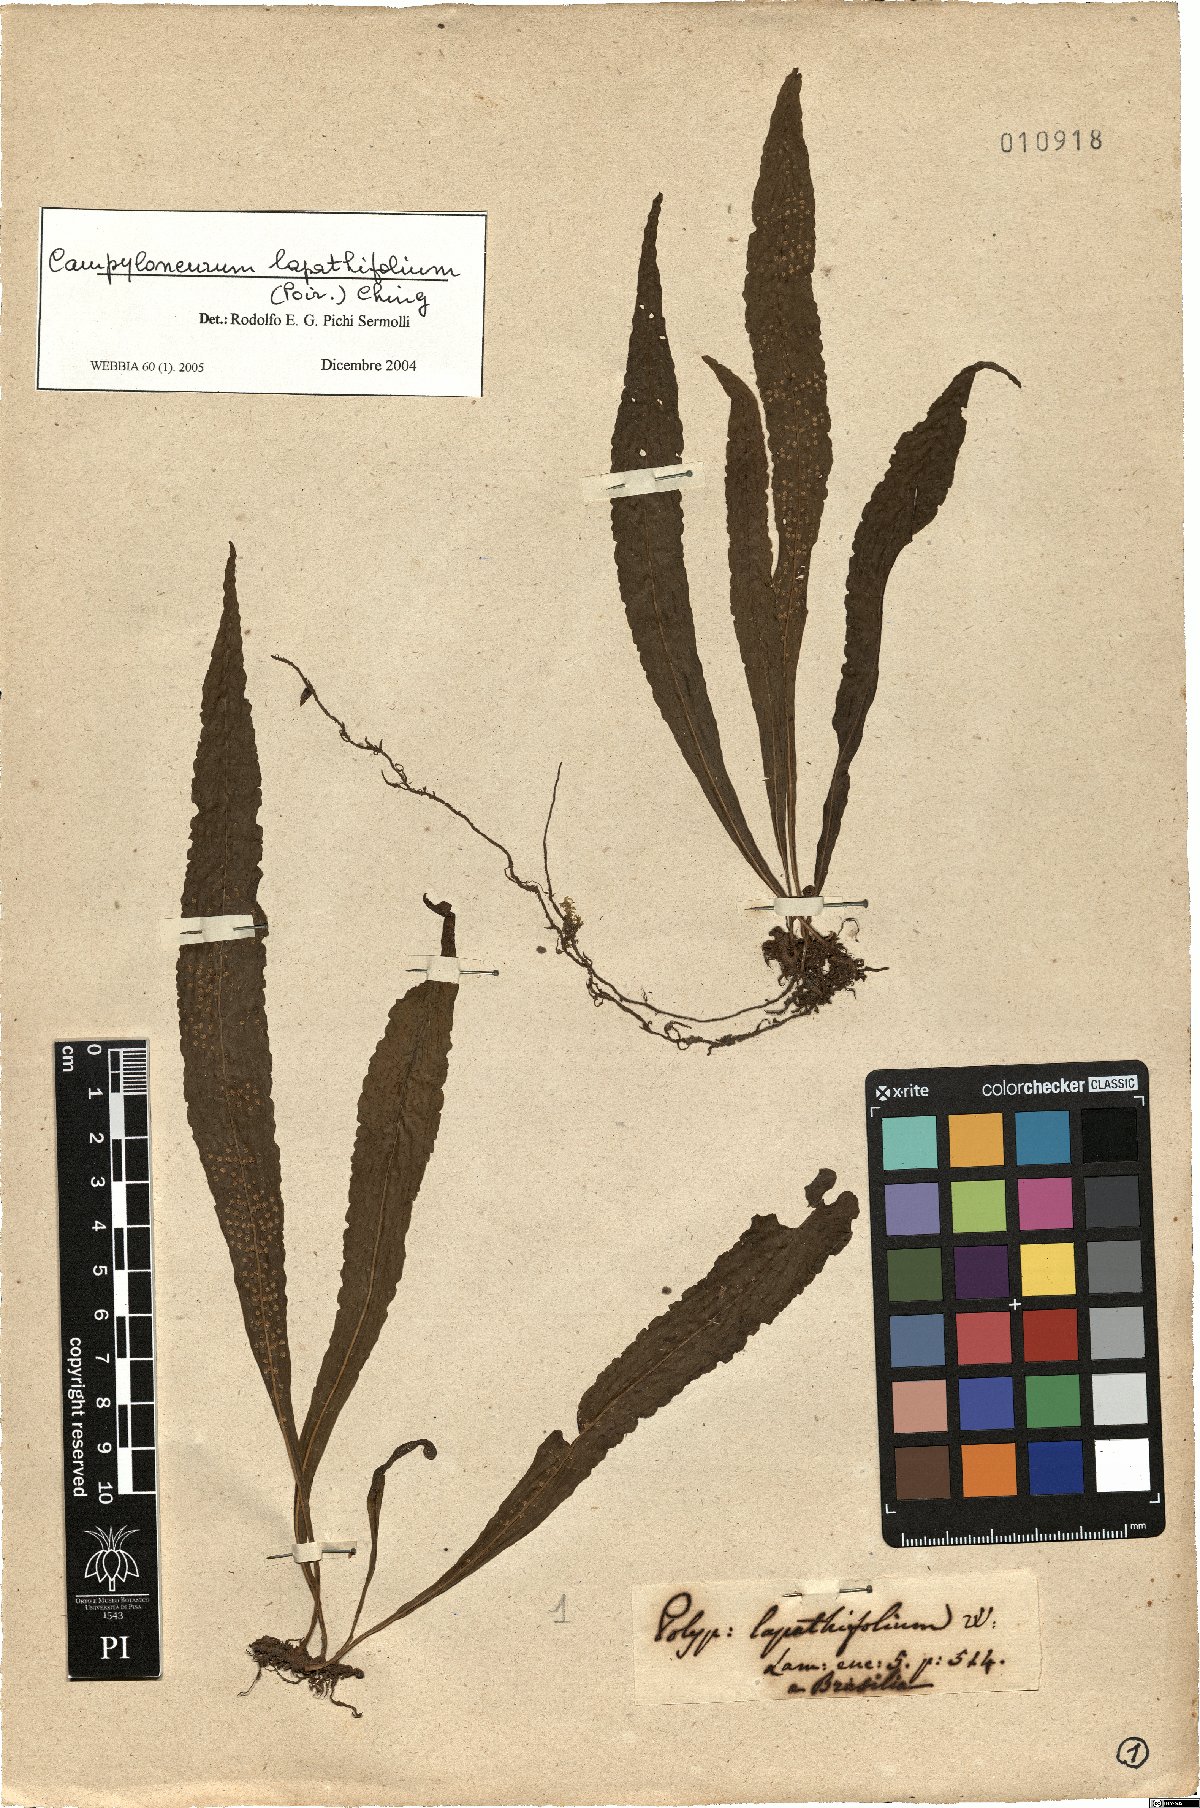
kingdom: Plantae
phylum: Tracheophyta
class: Polypodiopsida
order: Polypodiales
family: Polypodiaceae
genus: Campyloneurum
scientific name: Campyloneurum repens
